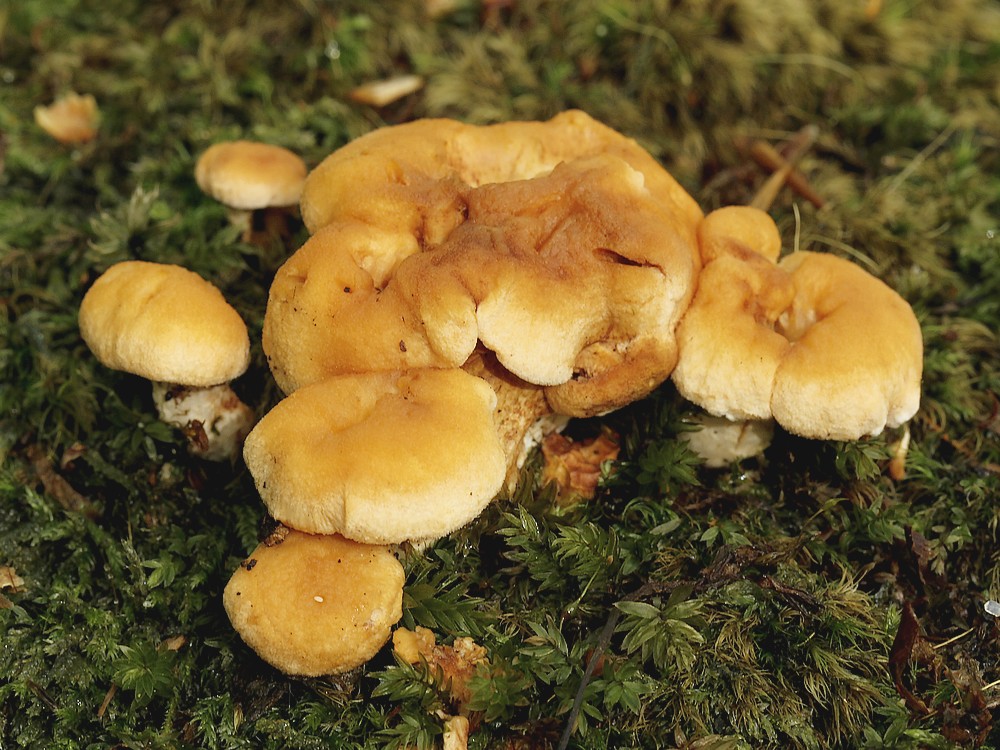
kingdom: Fungi
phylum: Basidiomycota
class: Agaricomycetes
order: Cantharellales
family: Hydnaceae
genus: Hydnum
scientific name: Hydnum rufescens
